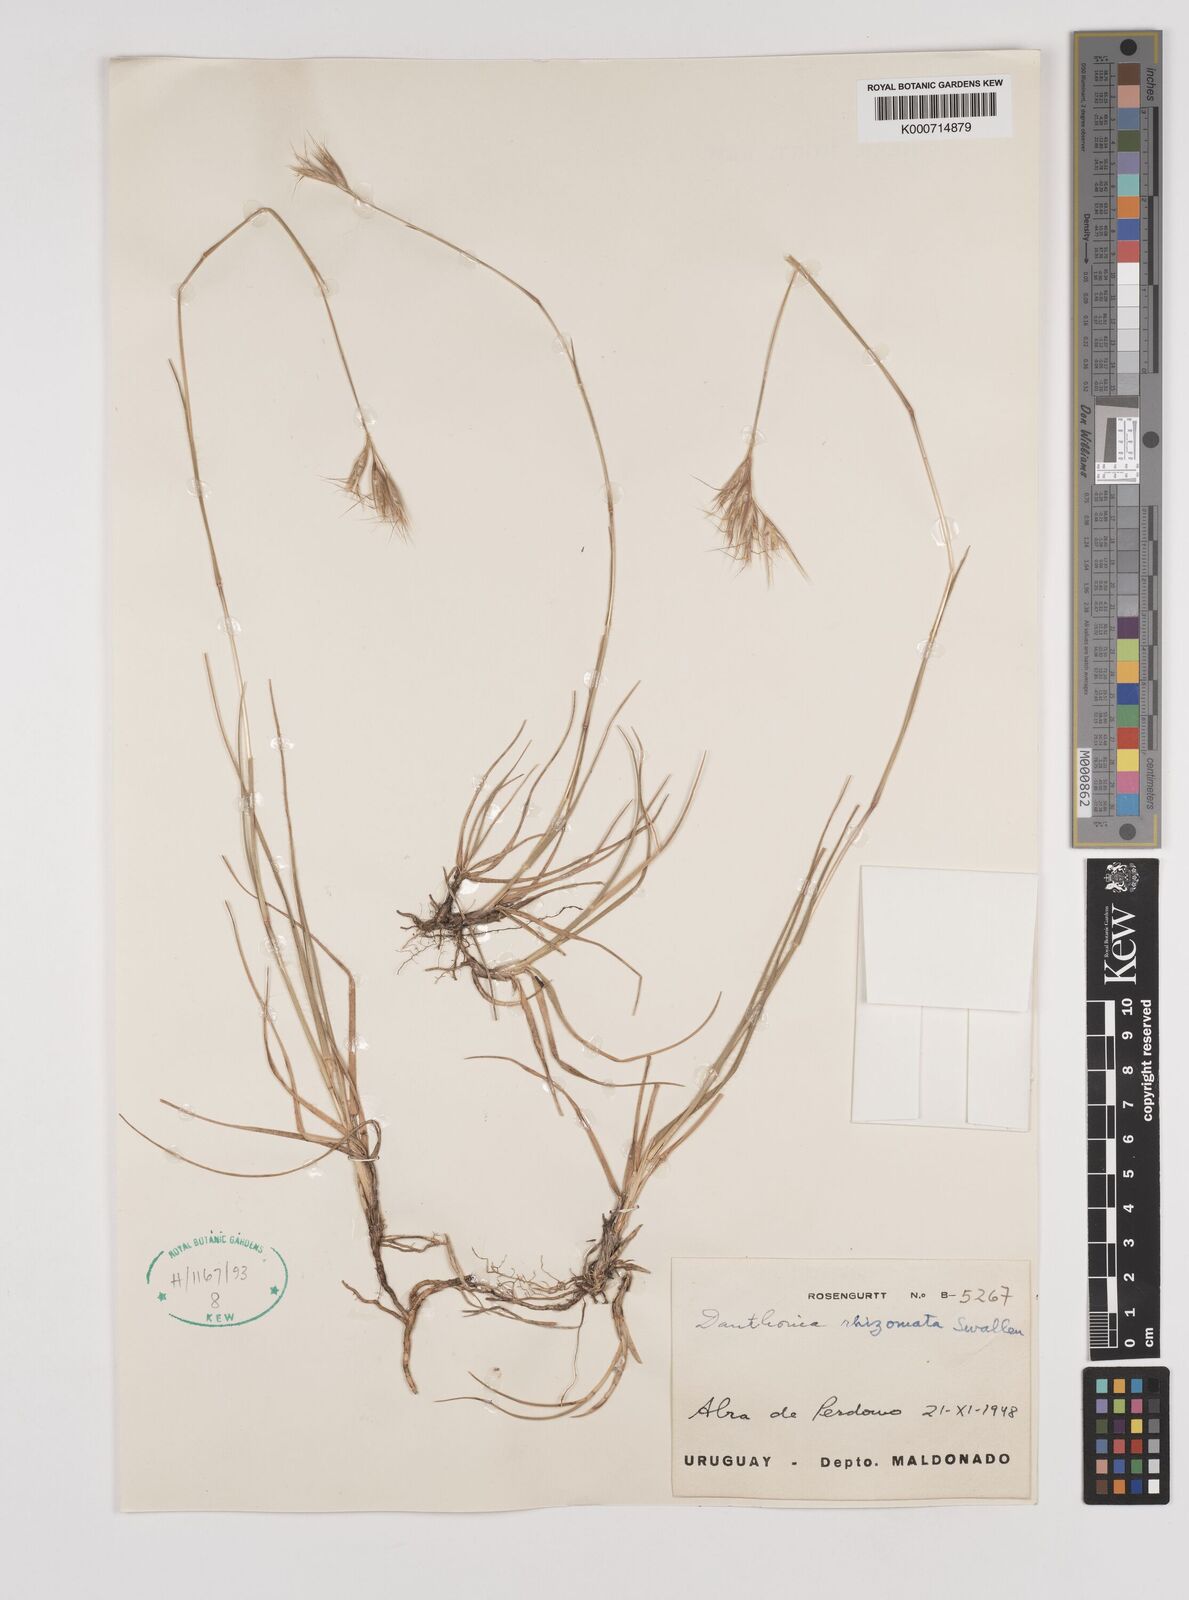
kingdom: Plantae
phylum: Tracheophyta
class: Liliopsida
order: Poales
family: Poaceae
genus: Rytidosperma
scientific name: Rytidosperma pictum
